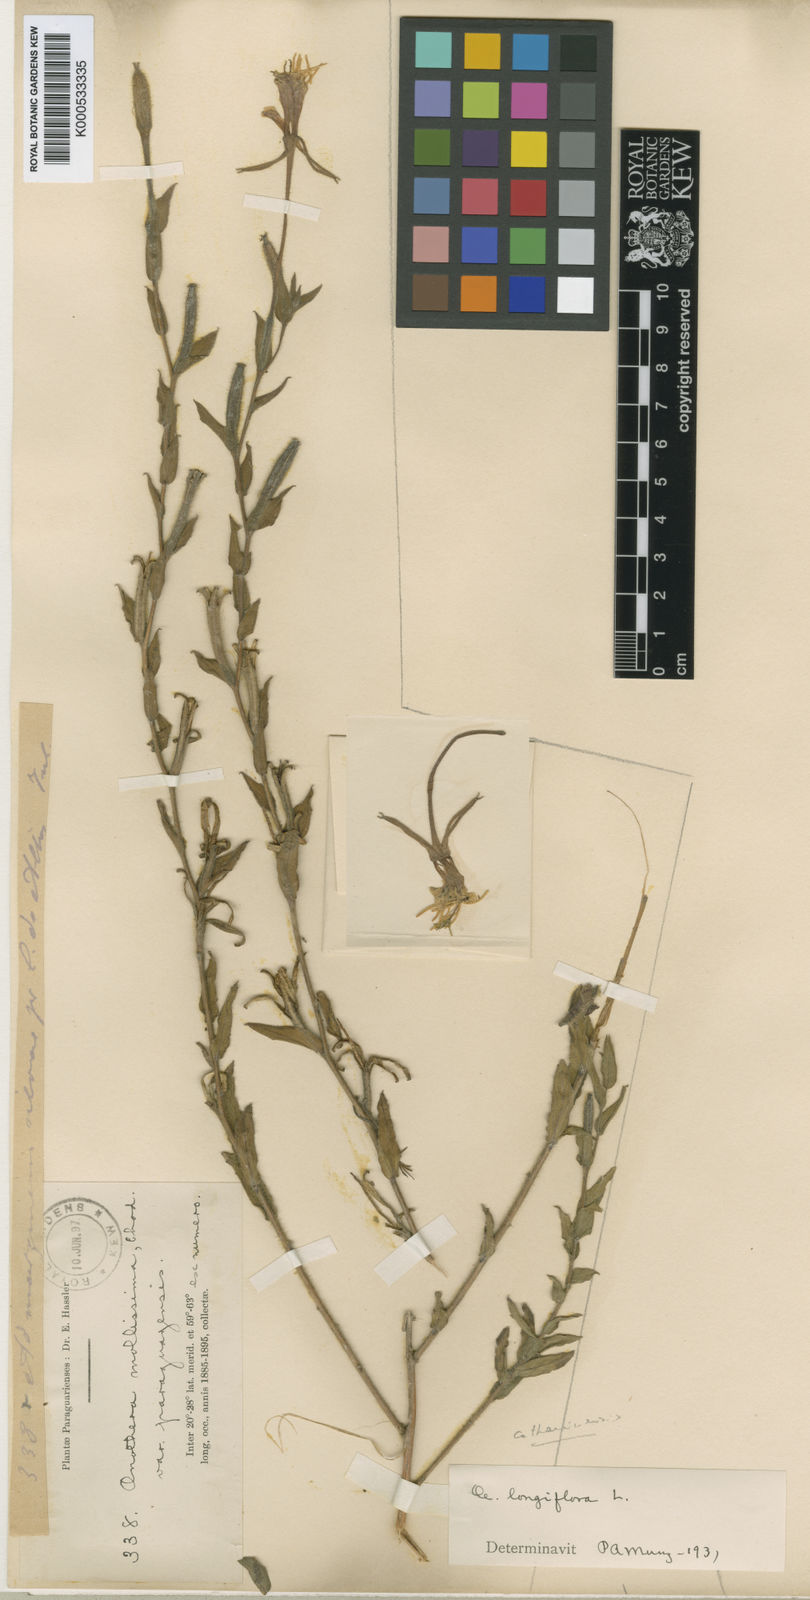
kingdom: Plantae
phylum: Tracheophyta
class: Magnoliopsida
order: Myrtales
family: Onagraceae
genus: Oenothera
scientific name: Oenothera longiflora
